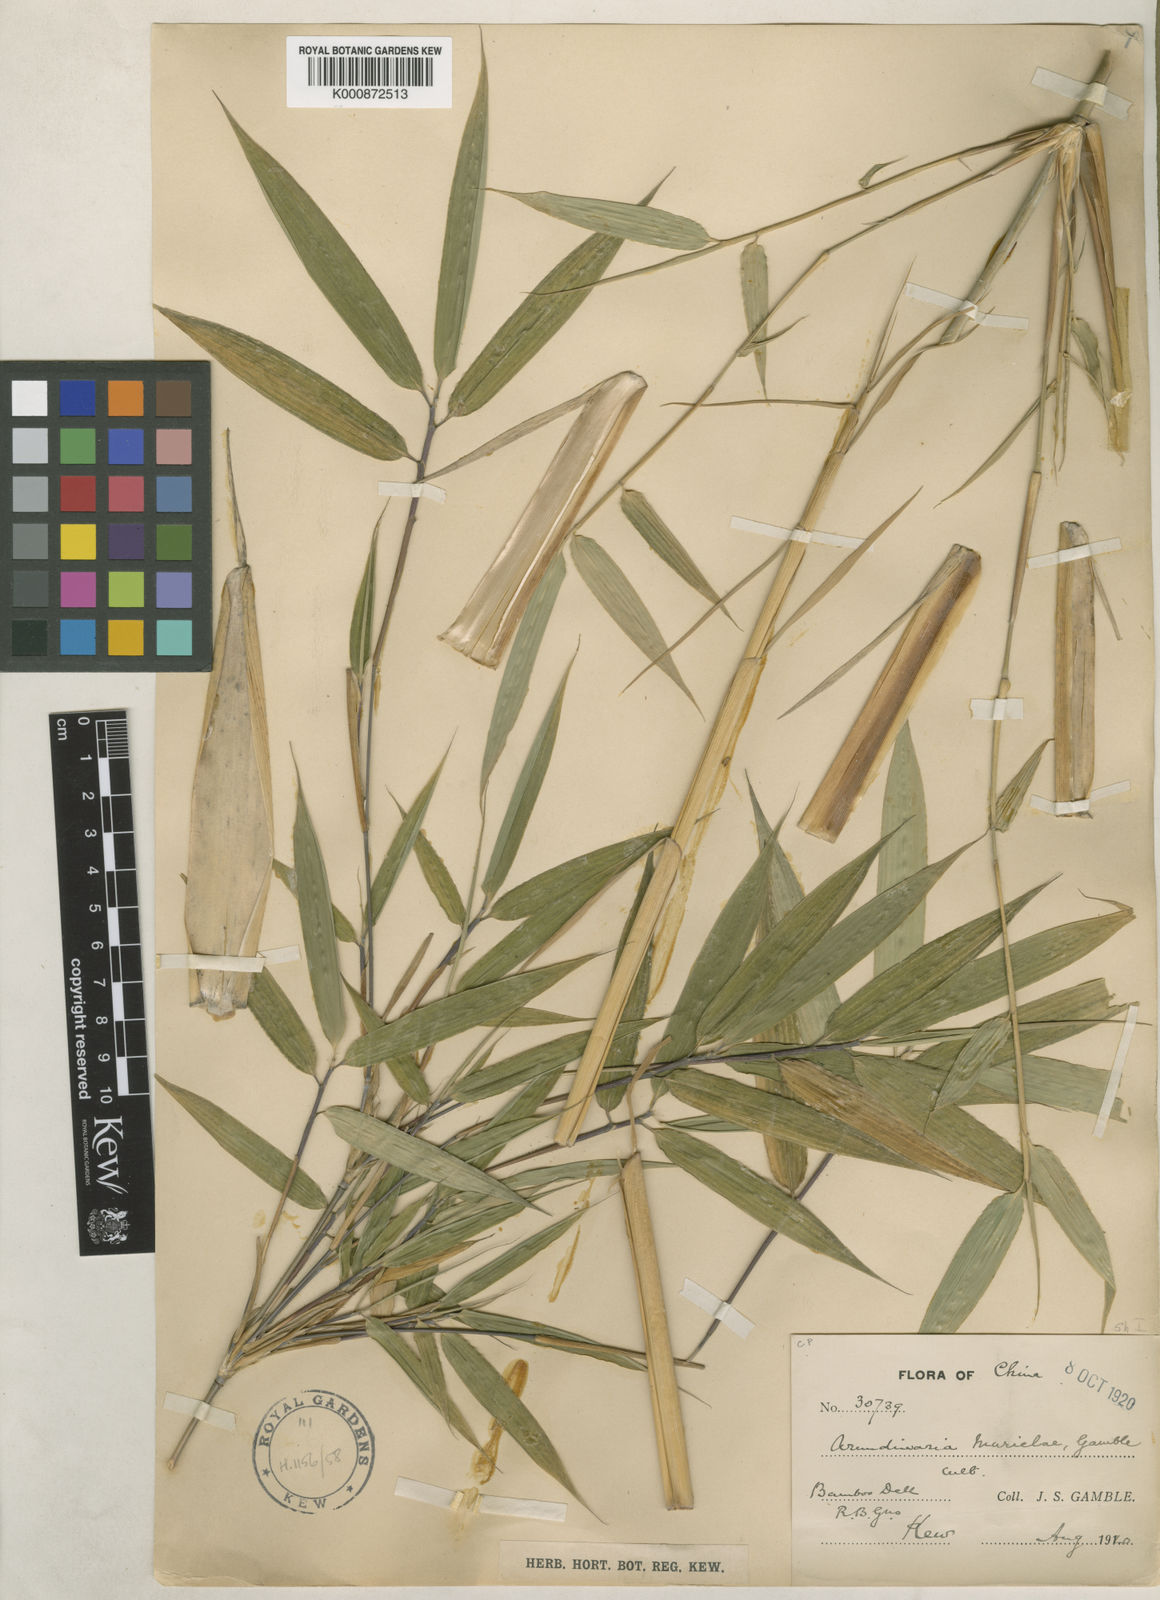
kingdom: Plantae
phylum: Tracheophyta
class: Liliopsida
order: Poales
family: Poaceae
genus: Fargesia
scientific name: Fargesia murielae
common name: Umbrella bamboo
